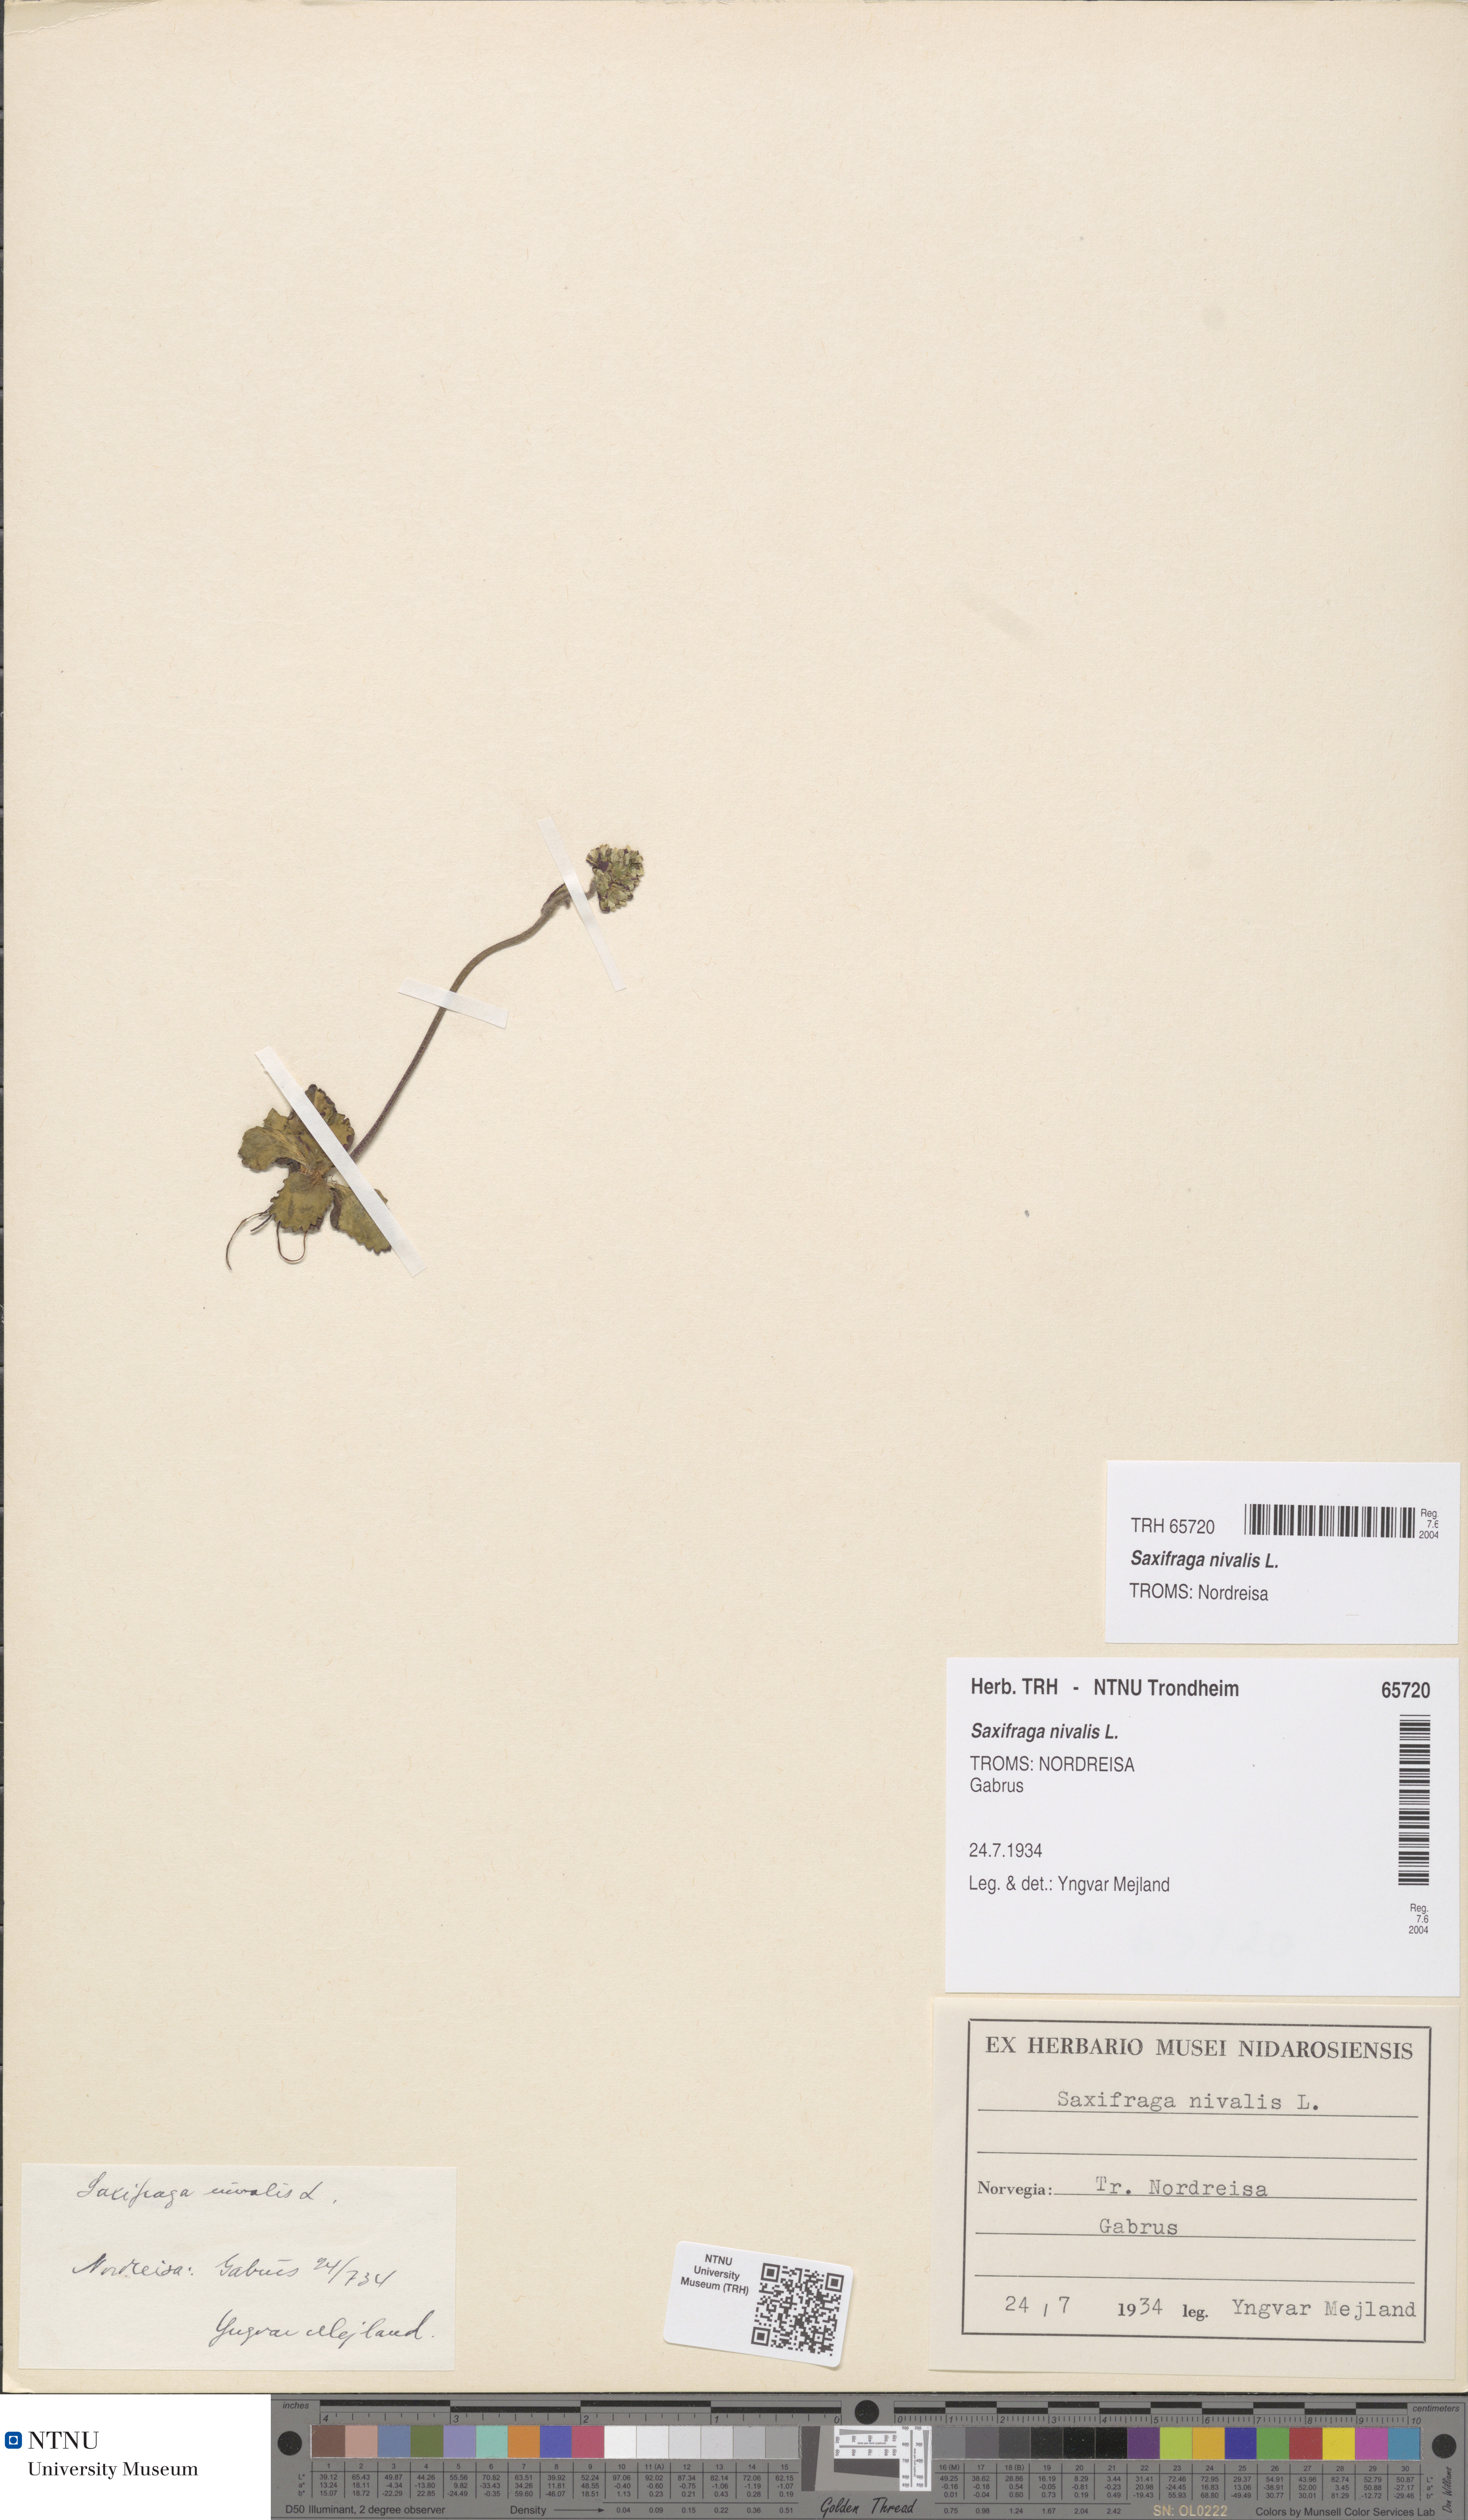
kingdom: Plantae
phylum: Tracheophyta
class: Magnoliopsida
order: Saxifragales
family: Saxifragaceae
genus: Micranthes
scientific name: Micranthes nivalis
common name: Alpine saxifrage
